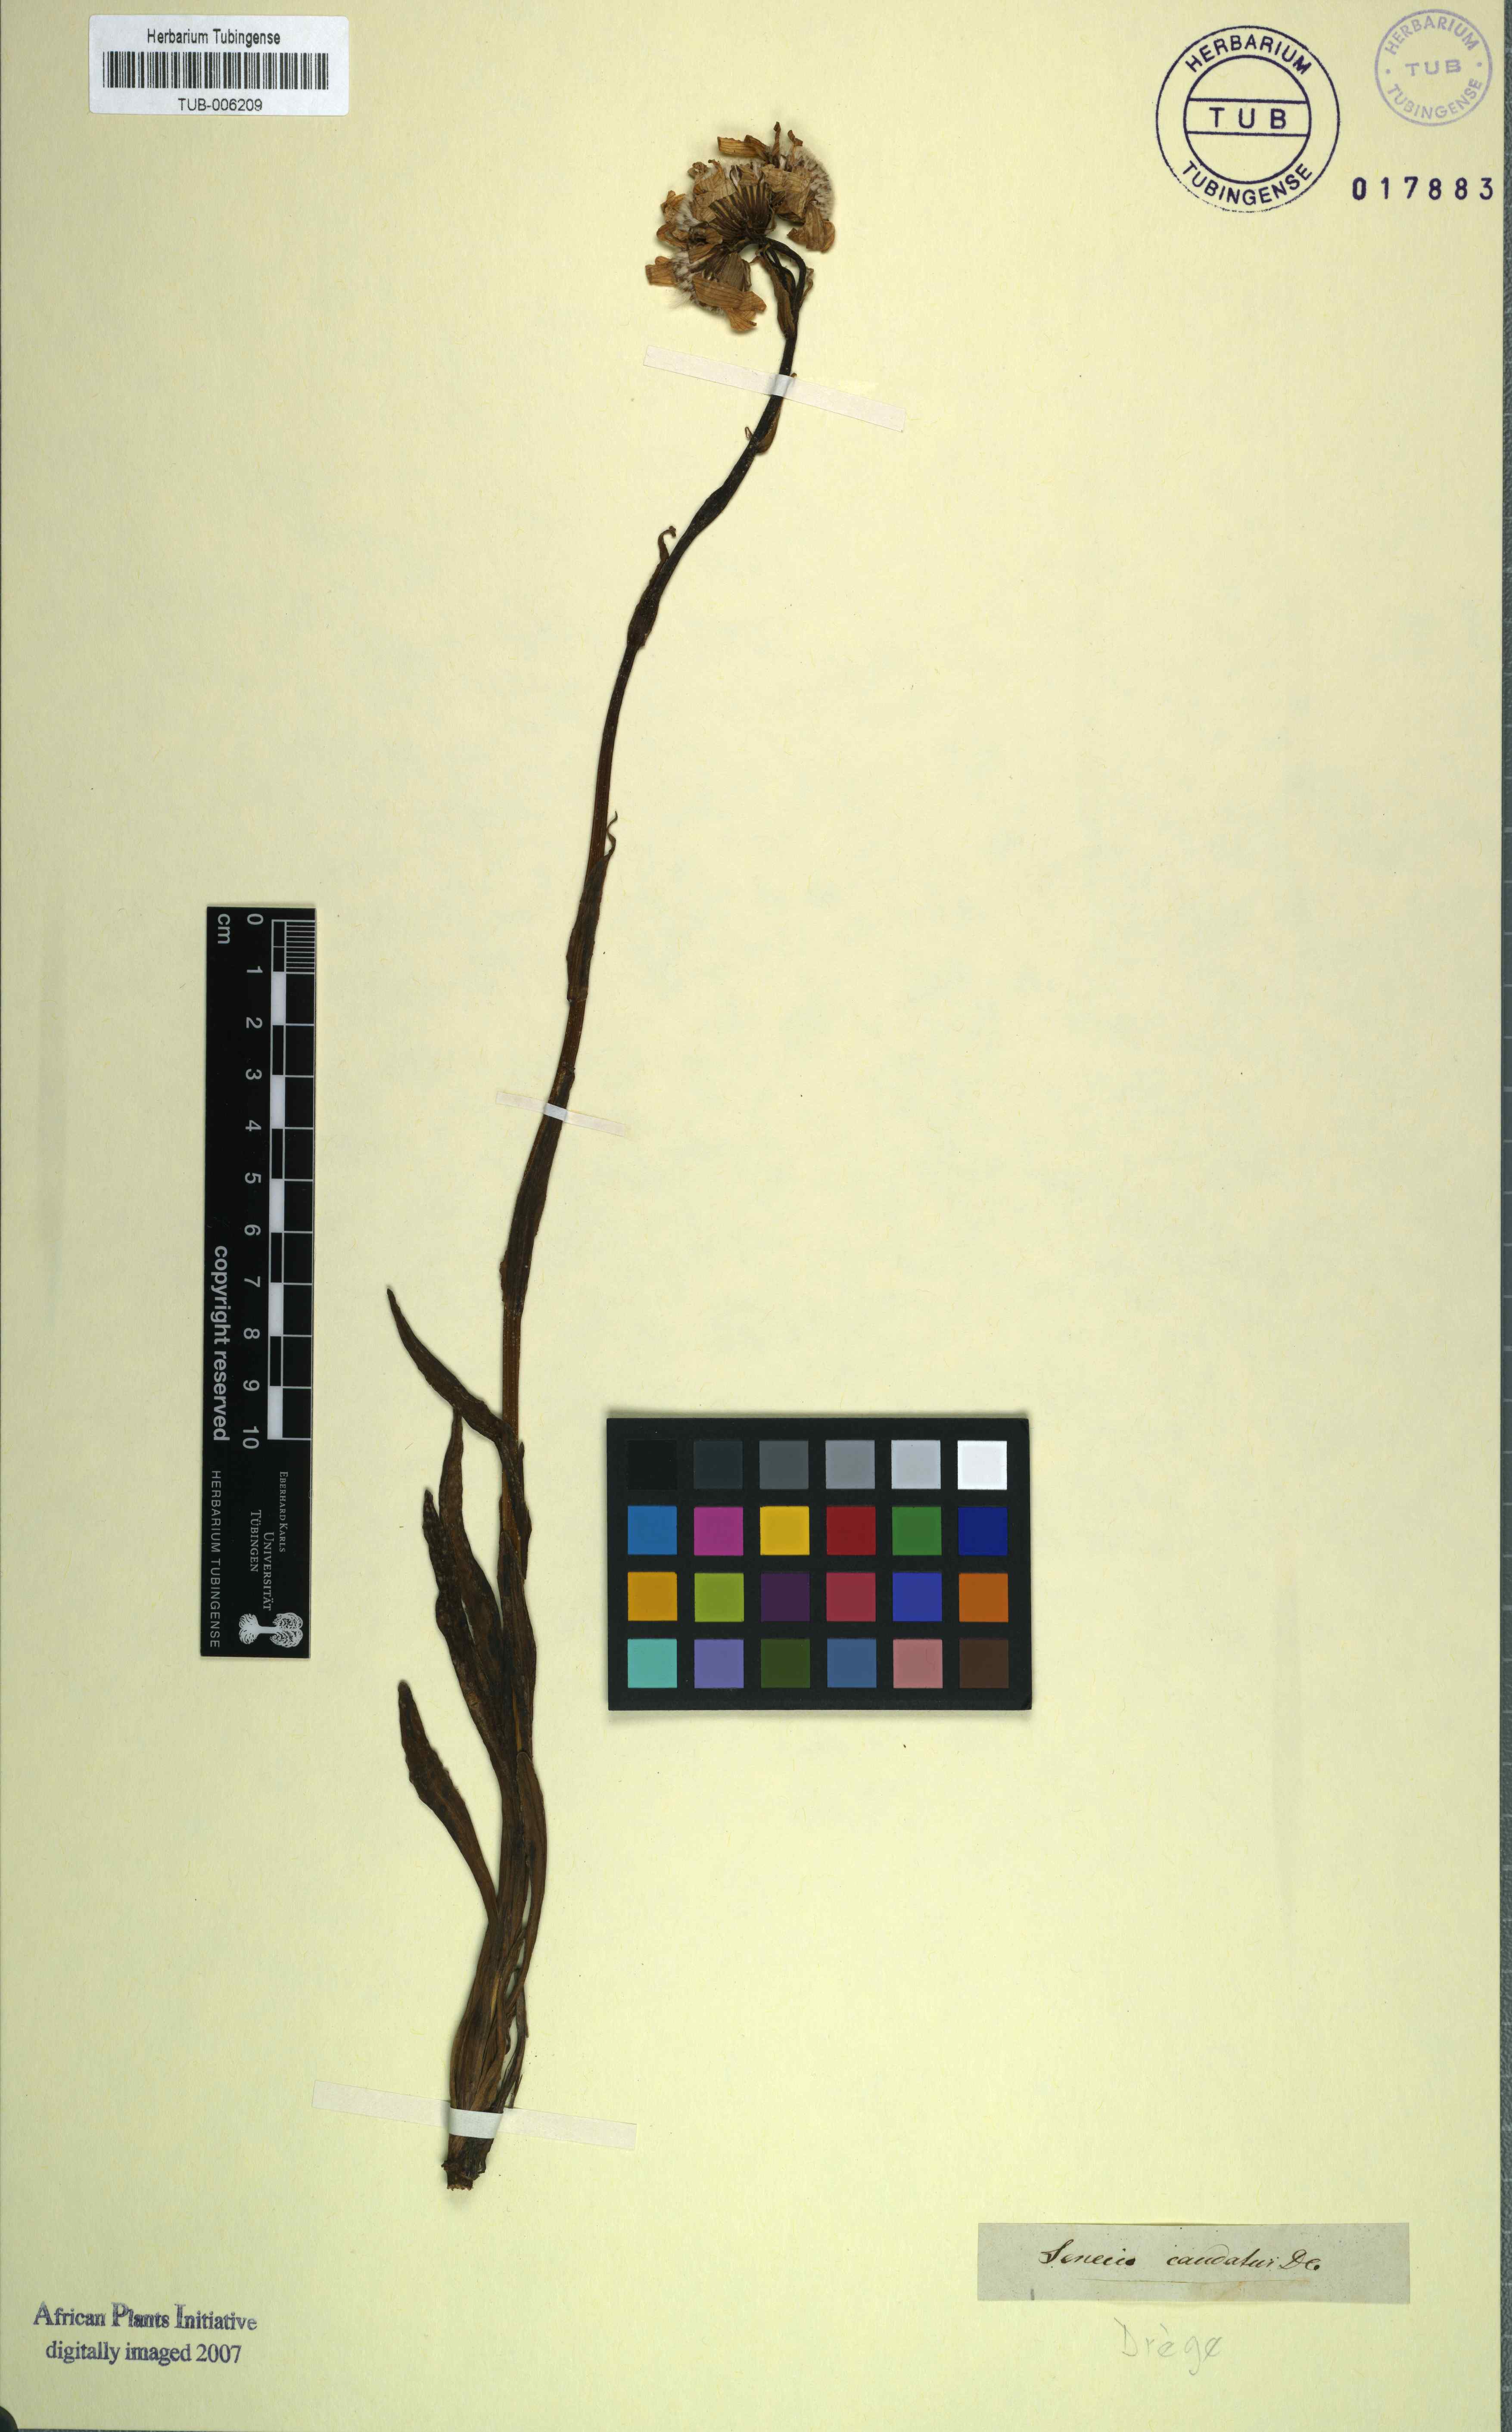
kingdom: Plantae
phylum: Tracheophyta
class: Magnoliopsida
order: Asterales
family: Asteraceae
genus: Senecio
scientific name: Senecio caudatus
